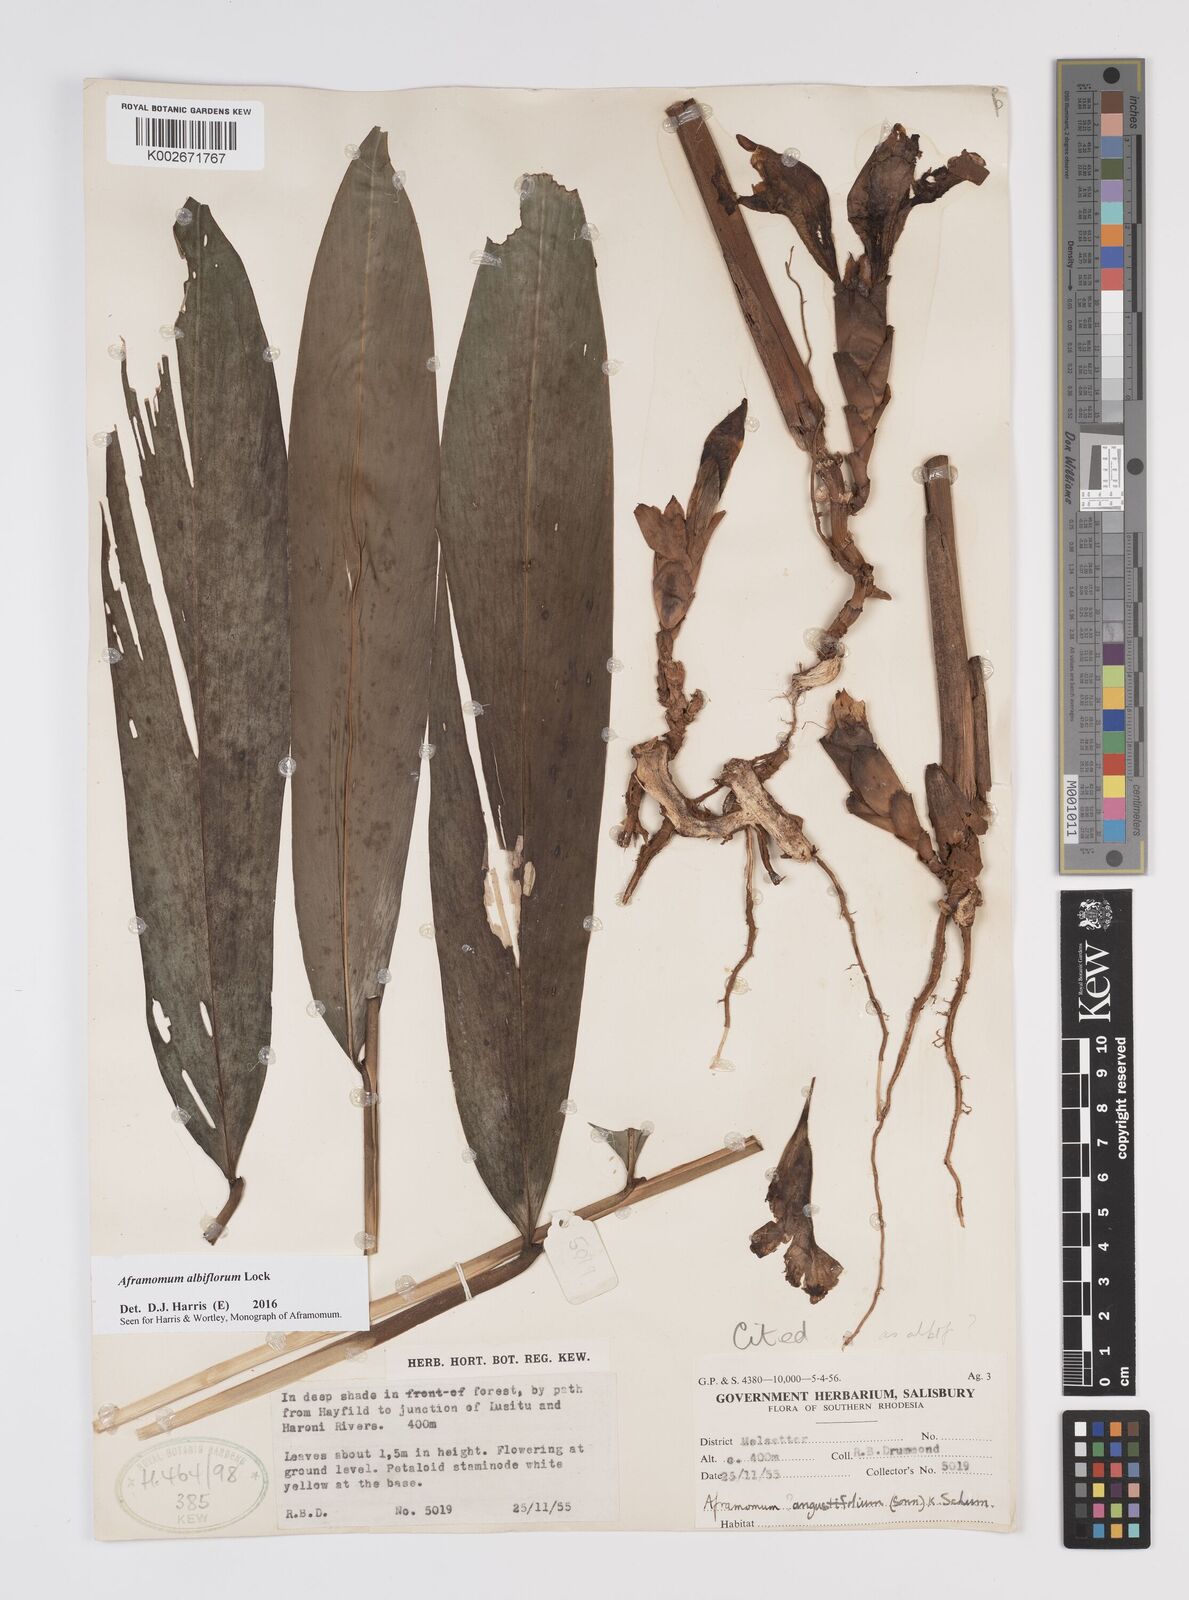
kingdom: Plantae
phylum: Tracheophyta
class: Liliopsida
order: Zingiberales
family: Zingiberaceae
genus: Aframomum
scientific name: Aframomum albiflorum
